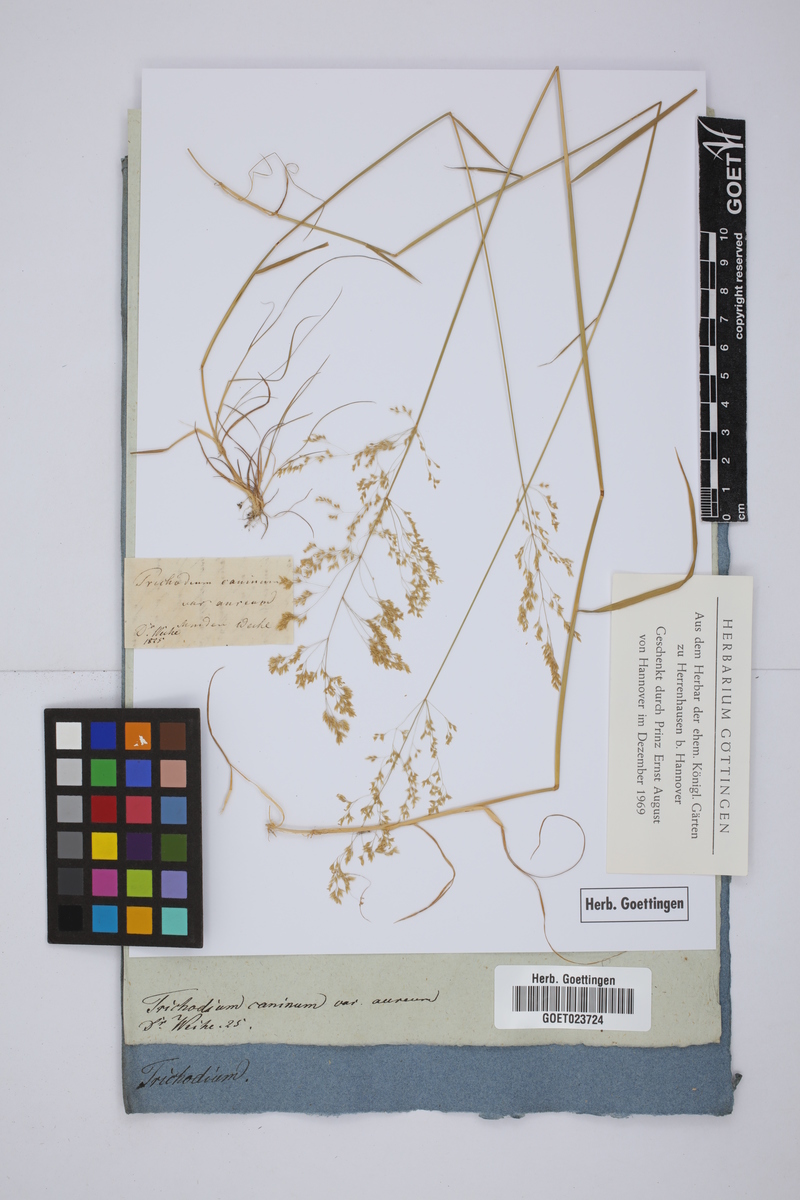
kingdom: Plantae
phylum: Tracheophyta
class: Liliopsida
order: Poales
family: Poaceae
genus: Agrostis
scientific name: Agrostis canina
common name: Velvet bent
